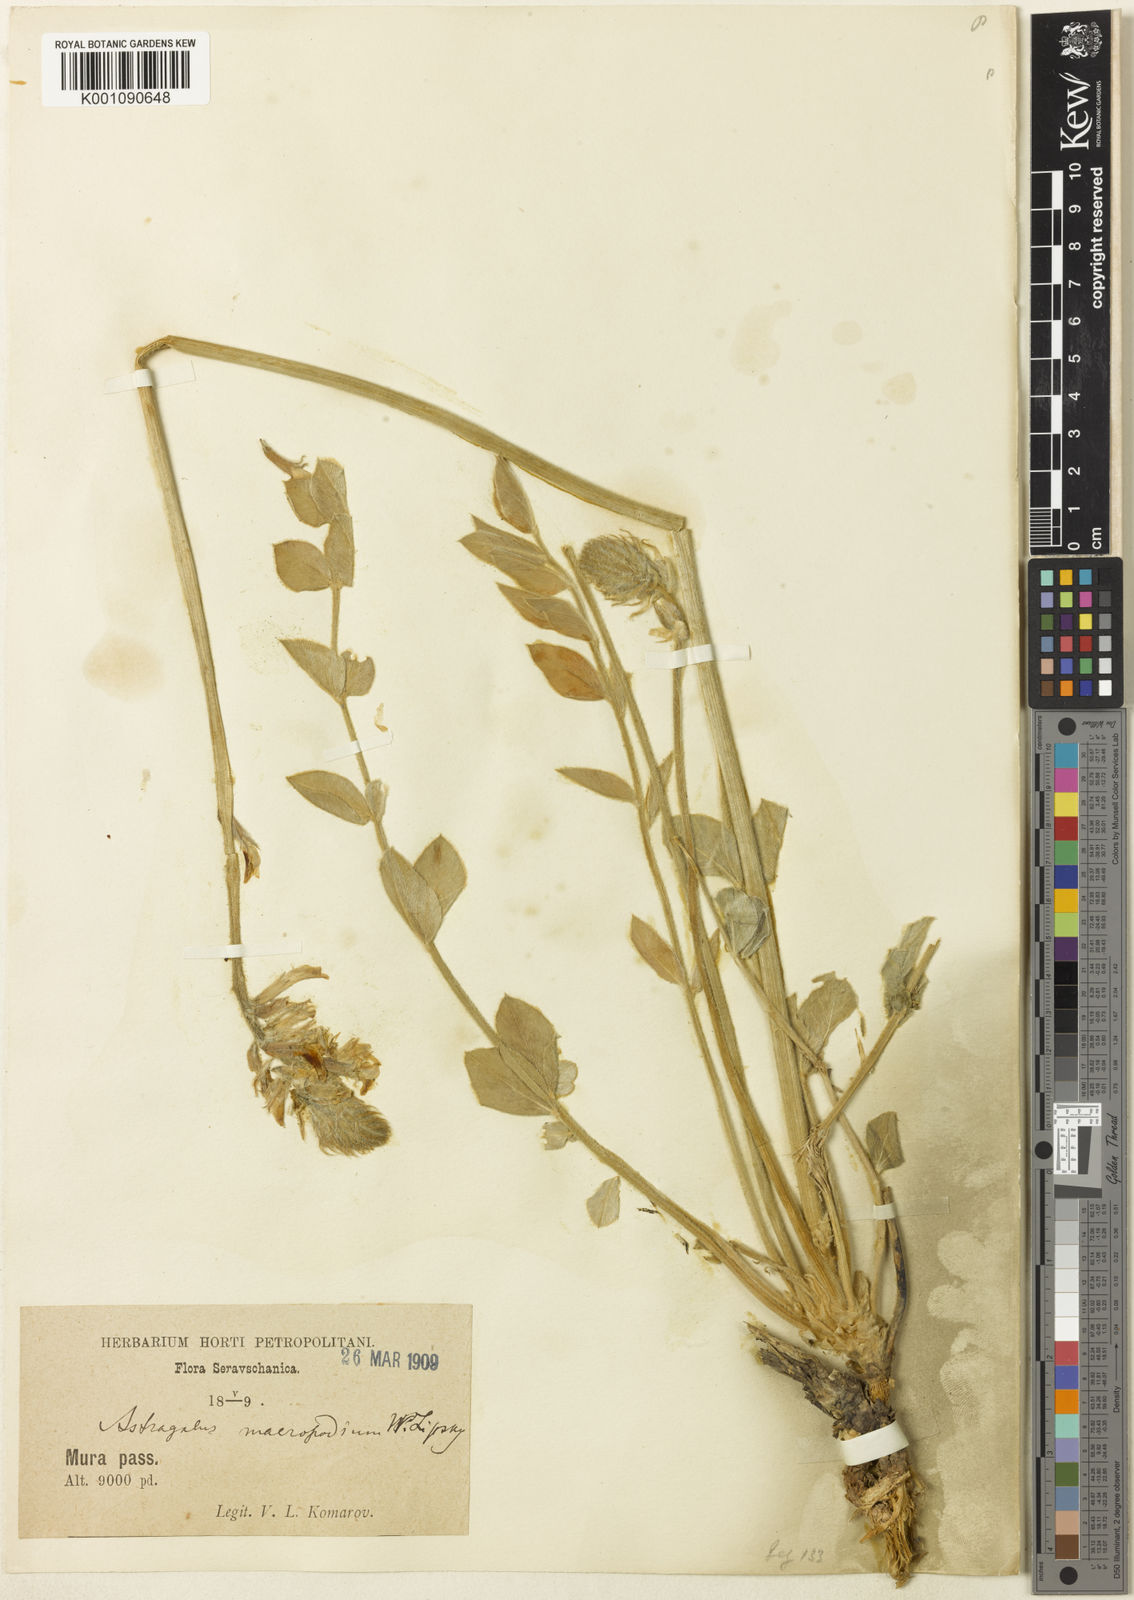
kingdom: Plantae
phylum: Tracheophyta
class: Magnoliopsida
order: Fabales
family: Fabaceae
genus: Astragalus
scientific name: Astragalus
